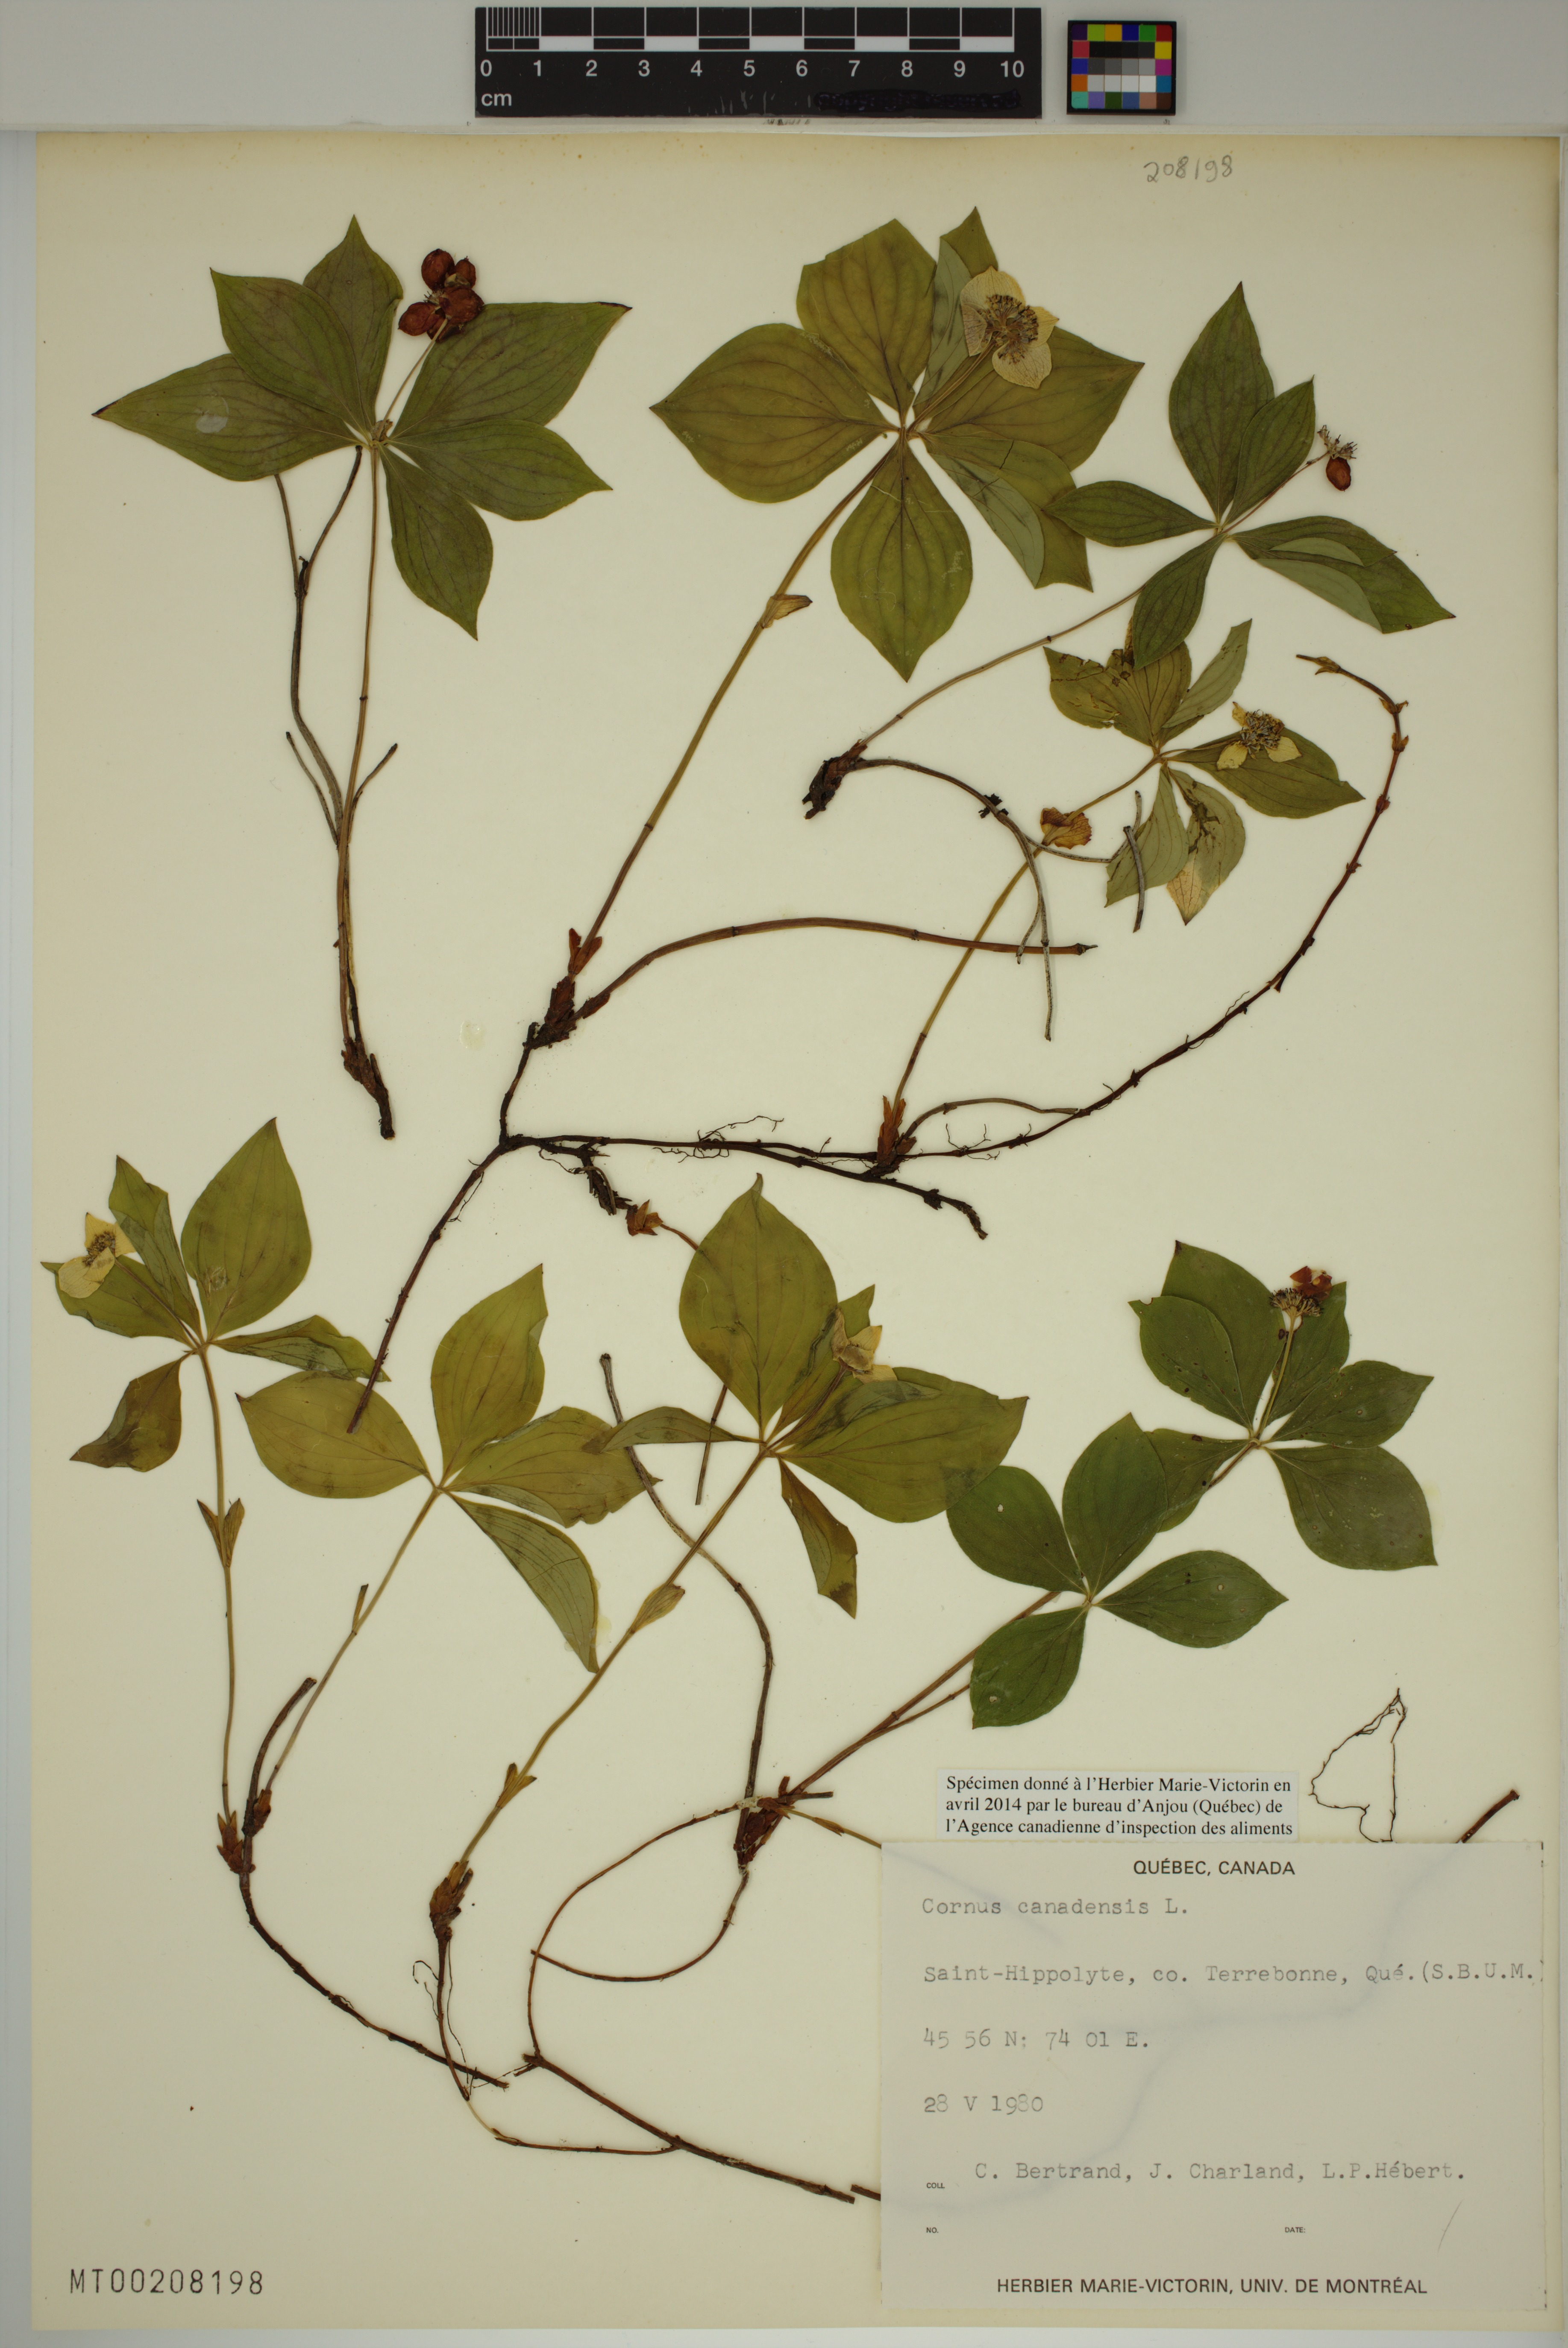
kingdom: Plantae
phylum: Tracheophyta
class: Magnoliopsida
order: Cornales
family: Cornaceae
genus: Cornus
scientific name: Cornus canadensis
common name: Creeping dogwood
